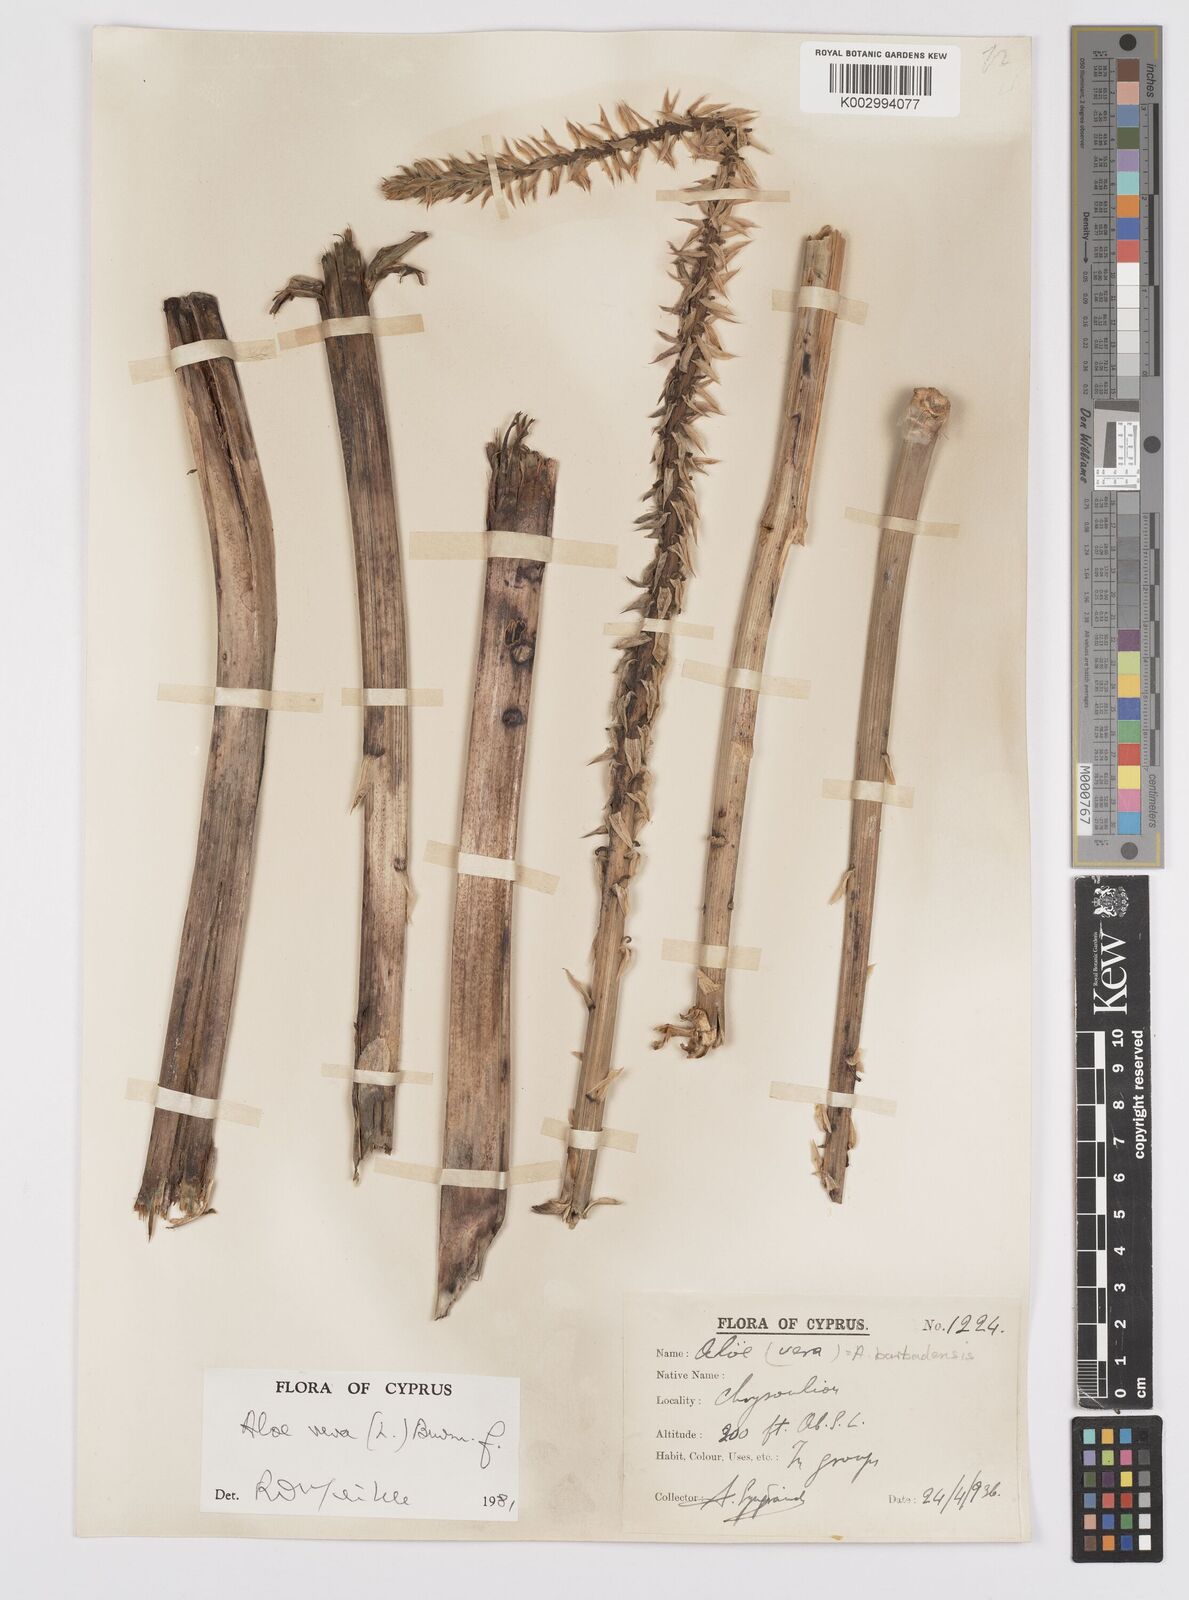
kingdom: Plantae
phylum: Tracheophyta
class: Liliopsida
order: Asparagales
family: Asphodelaceae
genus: Aloe
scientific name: Aloe vera
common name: Barbados aloe
